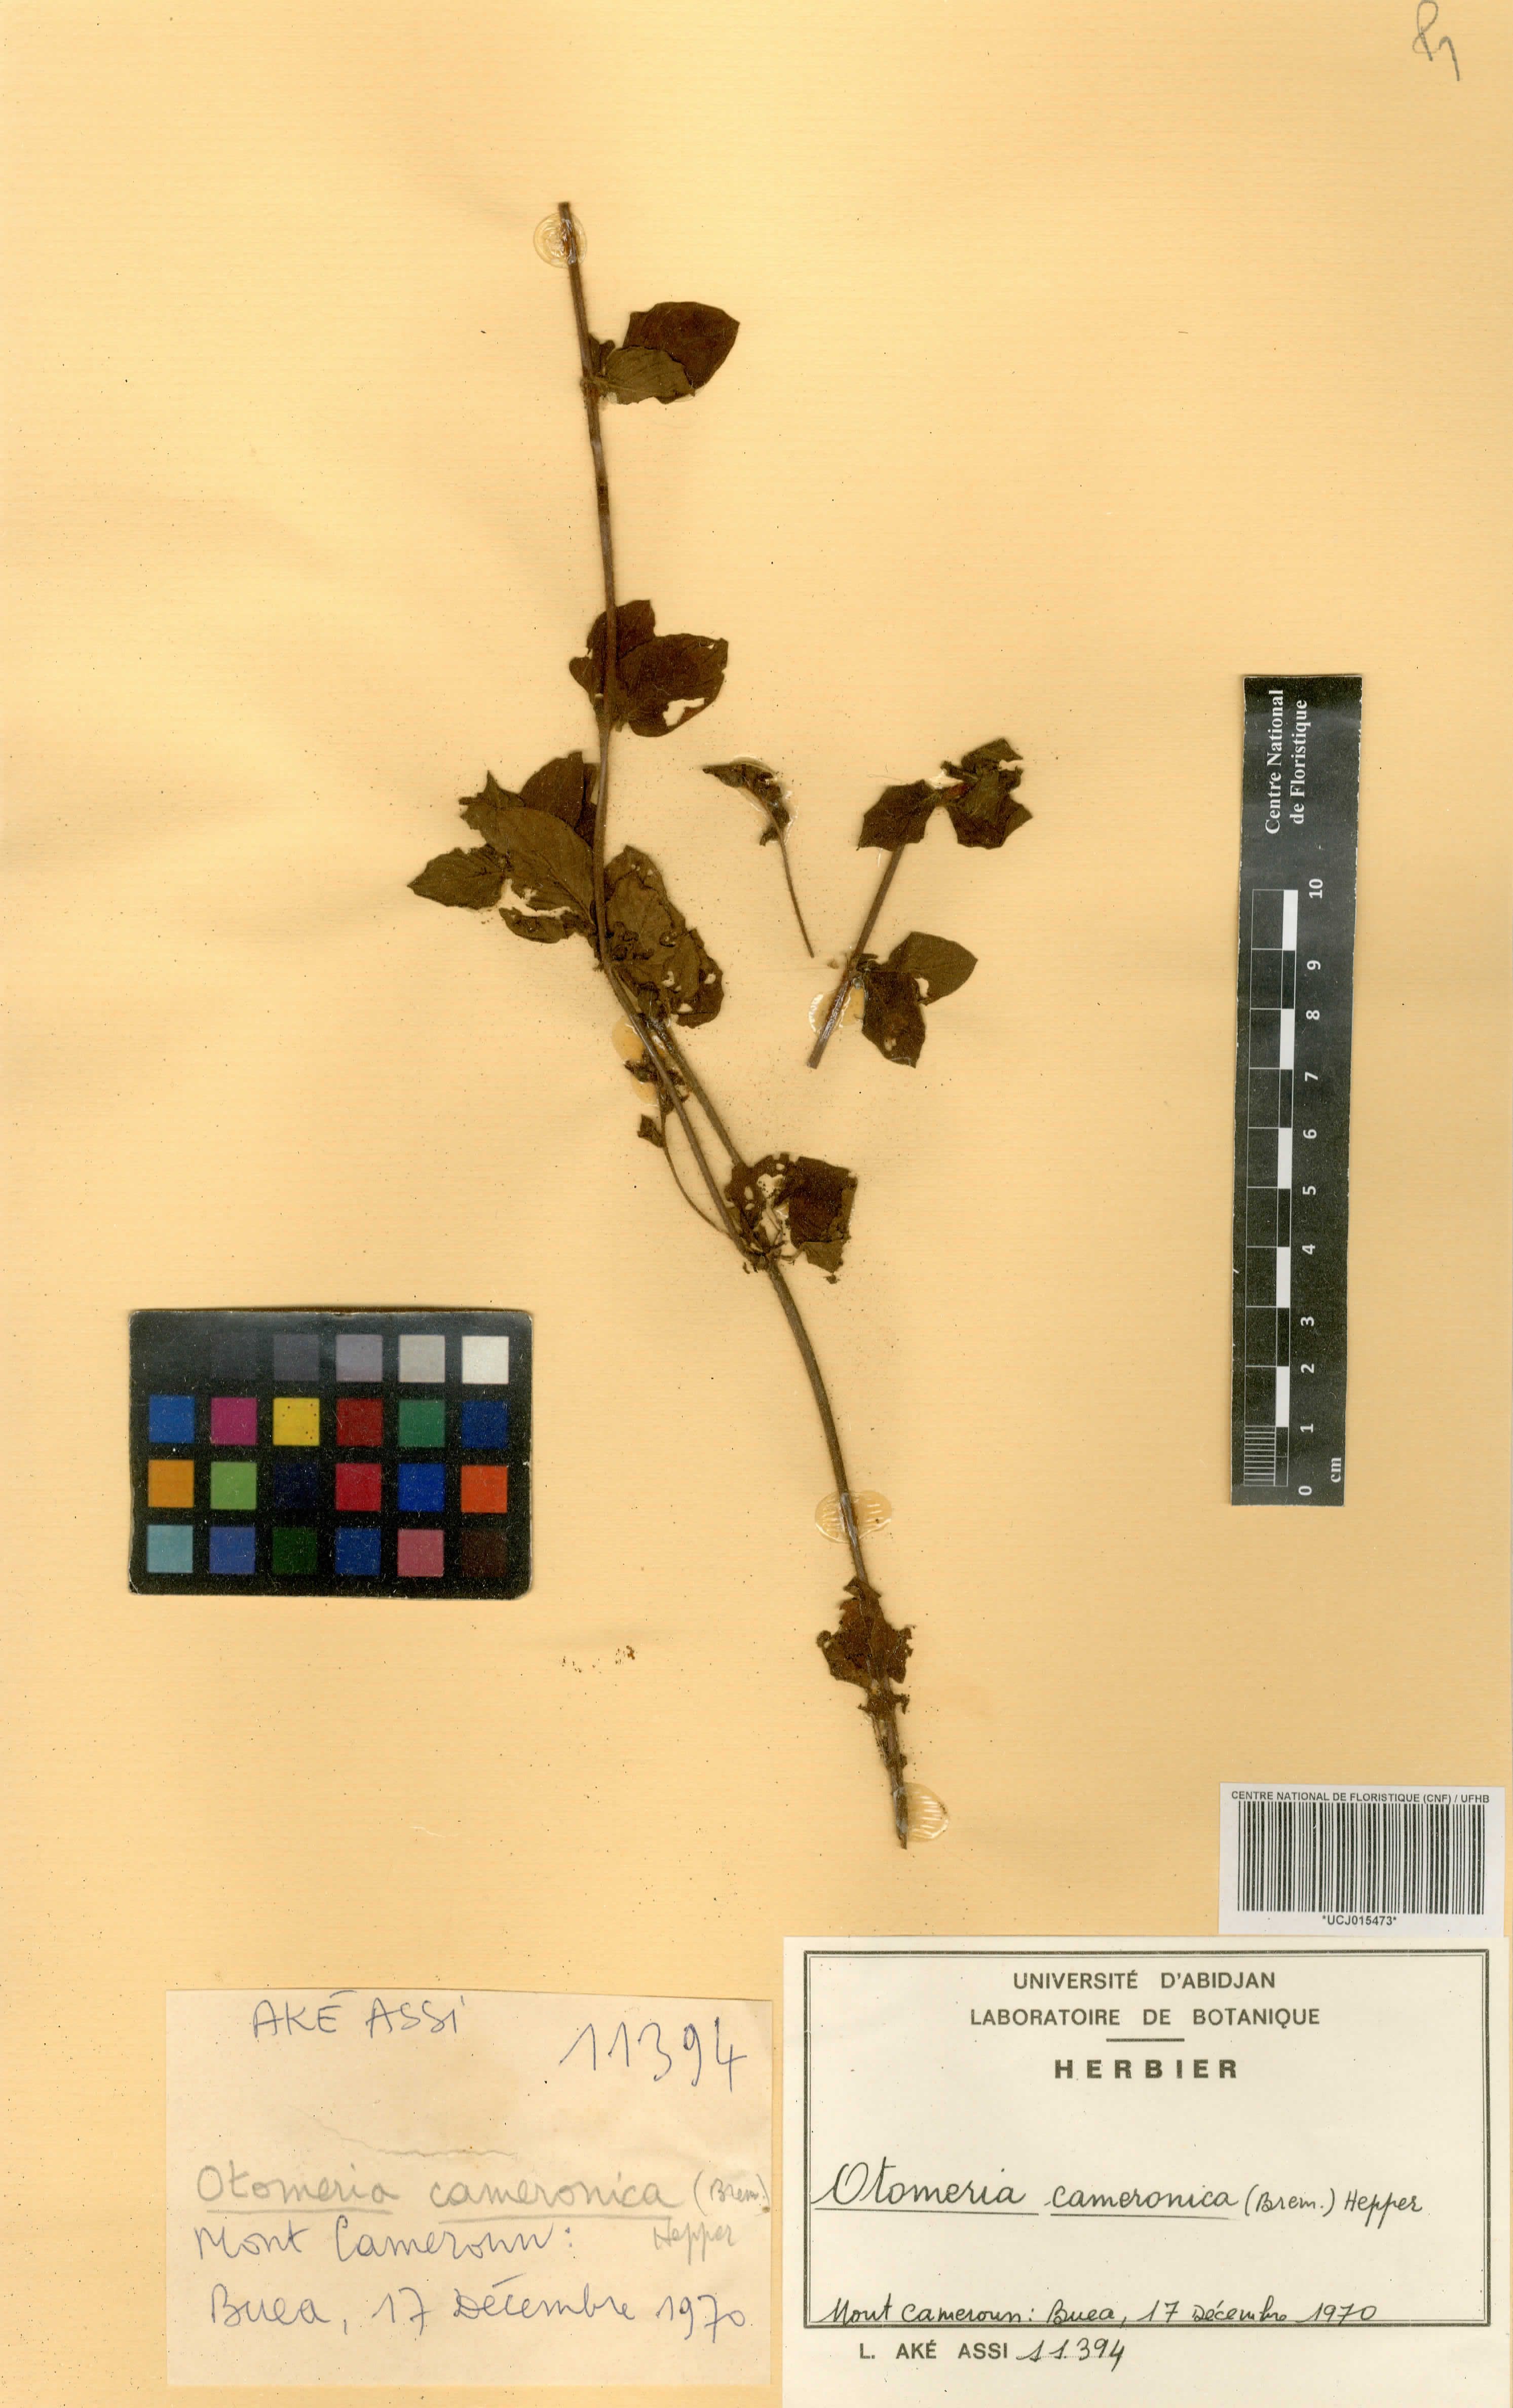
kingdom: Plantae
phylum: Tracheophyta
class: Magnoliopsida
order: Gentianales
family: Rubiaceae
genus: Otomeria
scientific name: Otomeria cameronica
